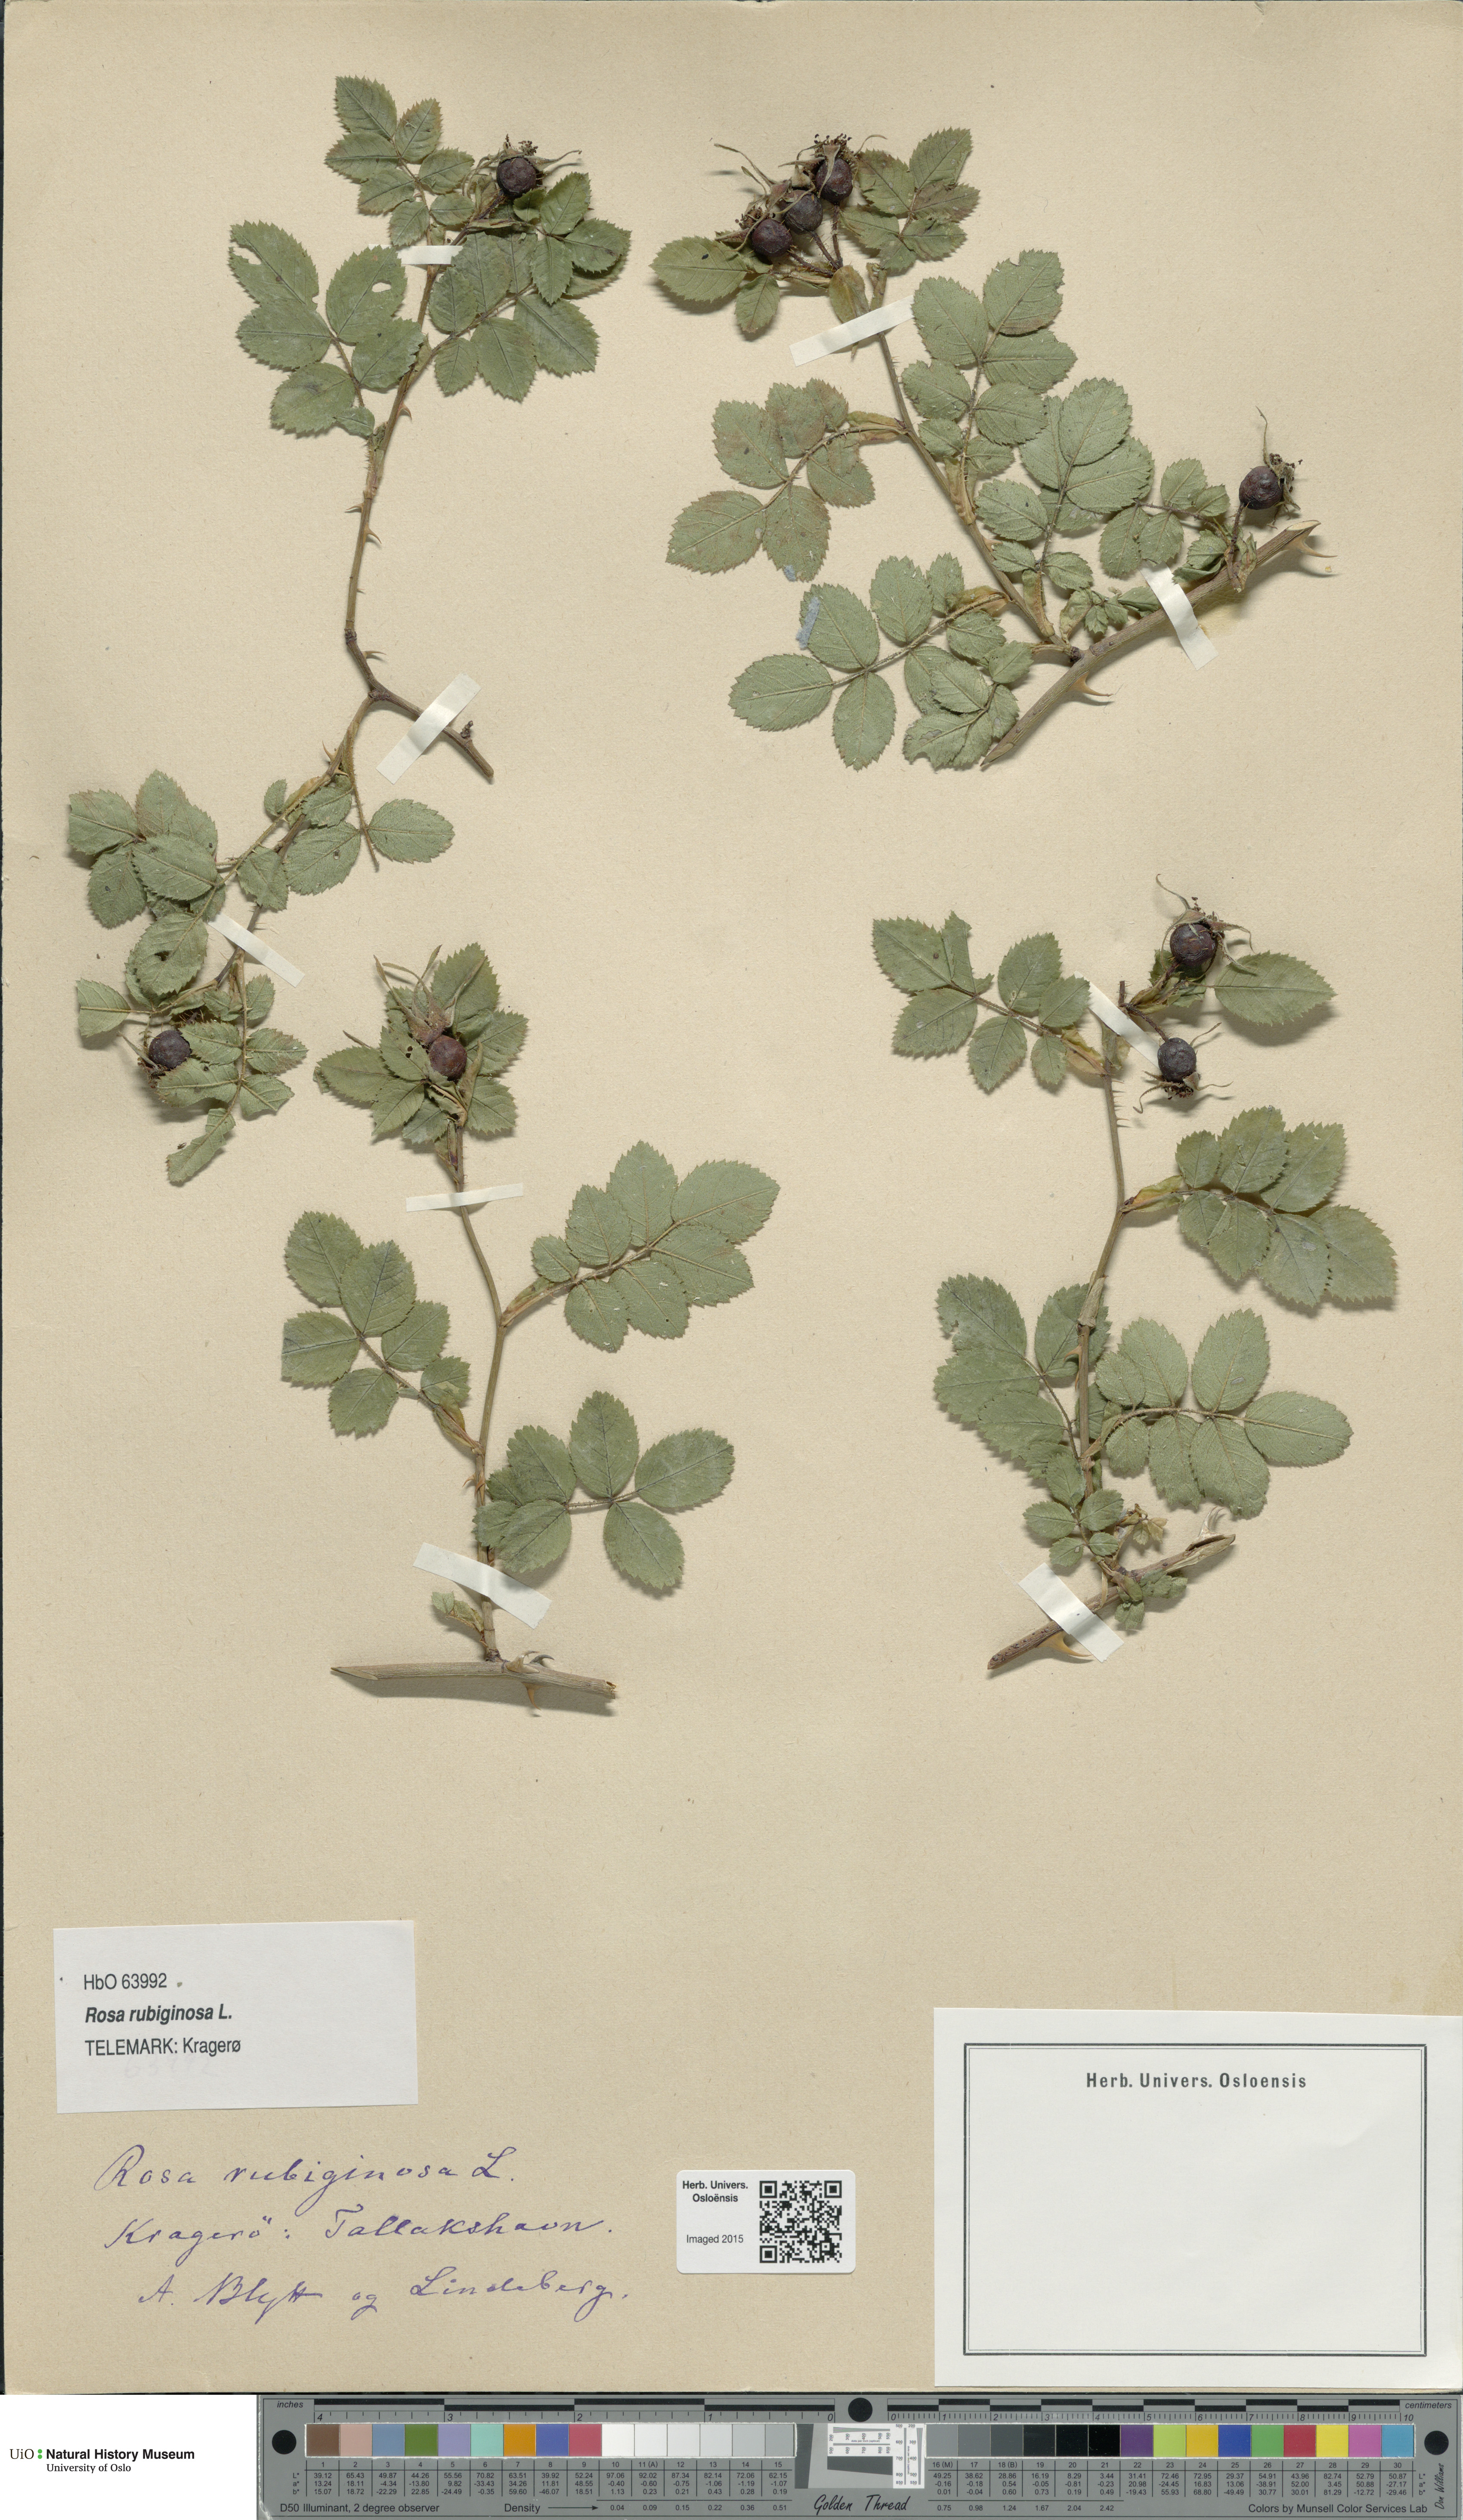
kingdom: Plantae
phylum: Tracheophyta
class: Magnoliopsida
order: Rosales
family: Rosaceae
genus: Rosa
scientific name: Rosa rubiginosa
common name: Sweet-briar
